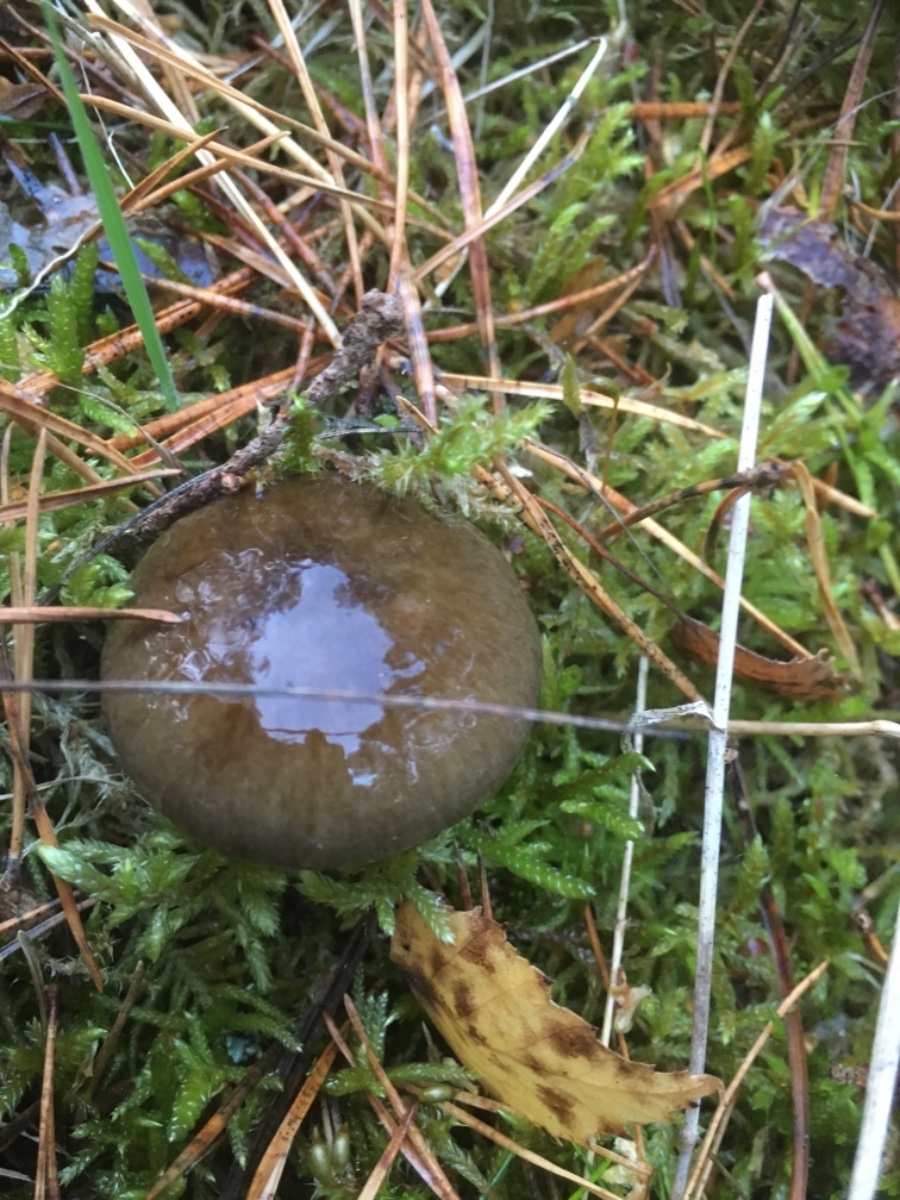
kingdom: Fungi
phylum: Basidiomycota
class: Agaricomycetes
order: Agaricales
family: Hygrophoraceae
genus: Hygrophorus
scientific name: Hygrophorus hypothejus
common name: frost-sneglehat
